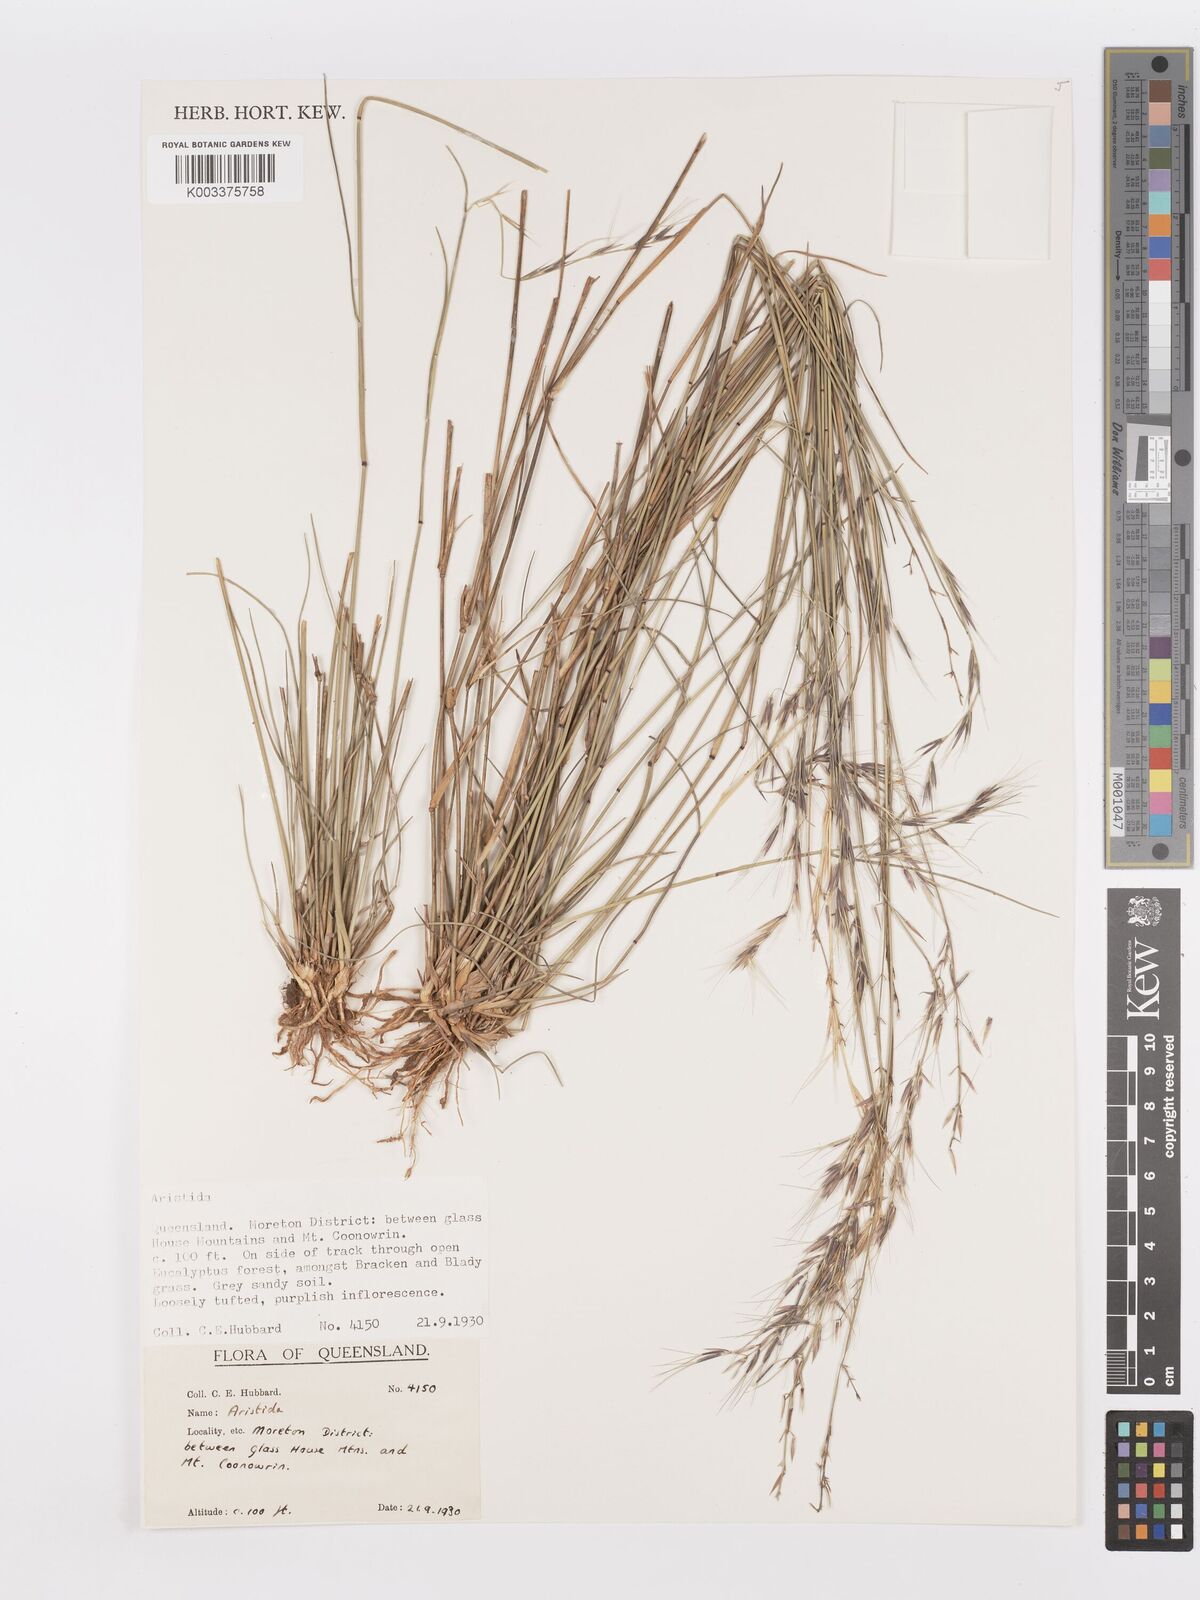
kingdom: Plantae
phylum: Tracheophyta
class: Liliopsida
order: Poales
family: Poaceae
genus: Aristida
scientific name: Aristida
